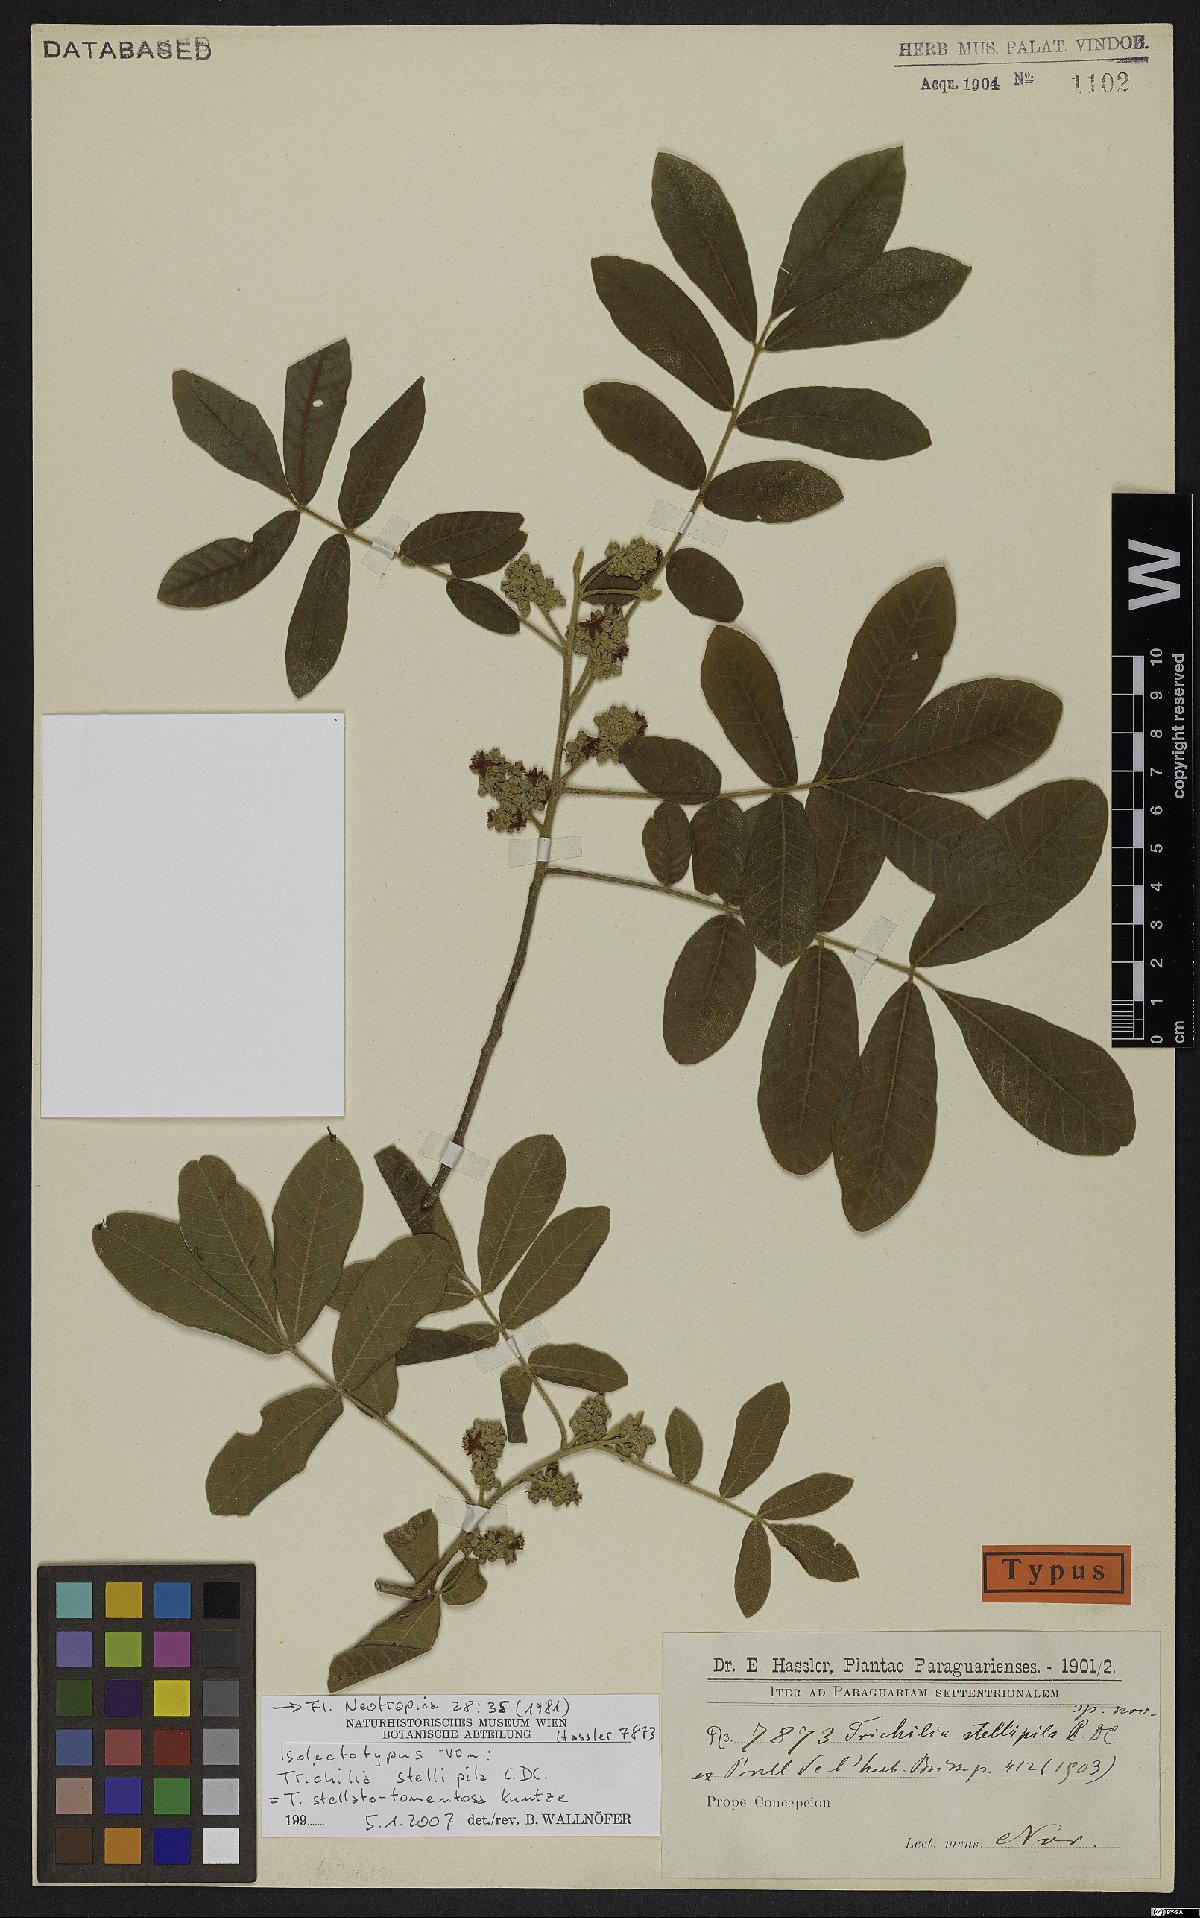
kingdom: Plantae
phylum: Tracheophyta
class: Magnoliopsida
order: Sapindales
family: Meliaceae
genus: Trichilia
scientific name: Trichilia stellatotomentosa
